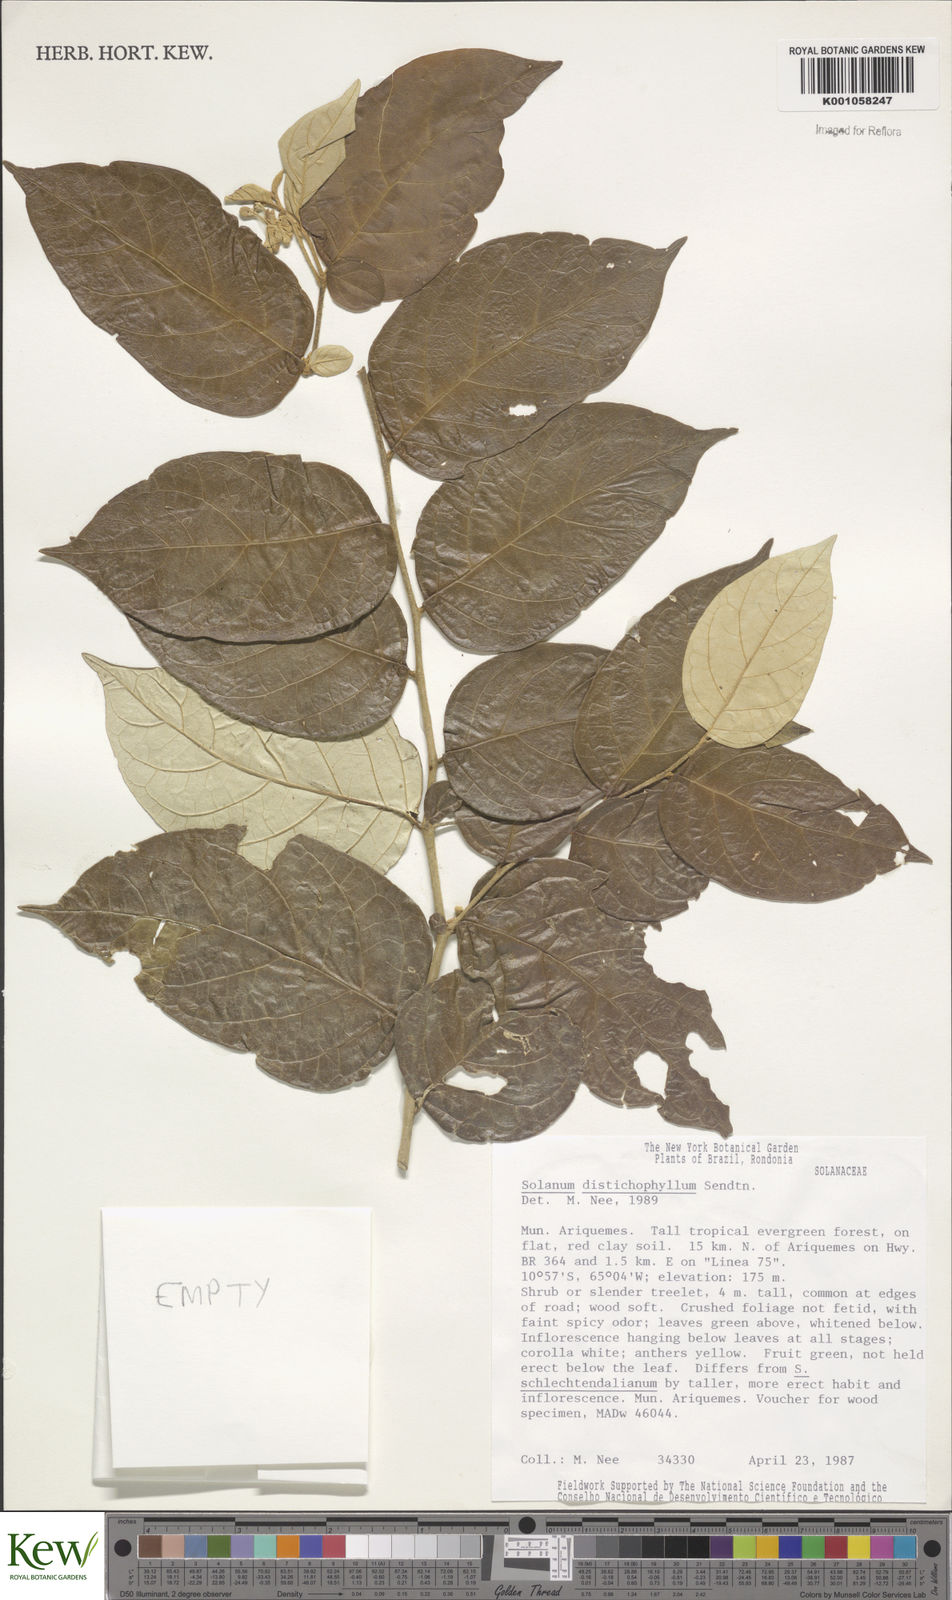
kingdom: Plantae
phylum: Tracheophyta
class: Magnoliopsida
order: Solanales
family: Solanaceae
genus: Solanum
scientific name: Solanum distichophyllum
